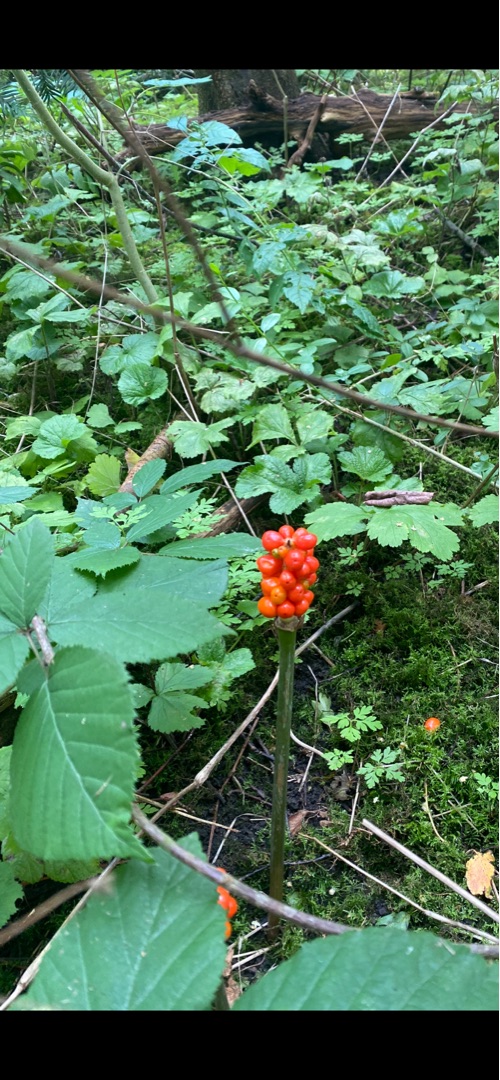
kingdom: Plantae
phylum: Tracheophyta
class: Liliopsida
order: Alismatales
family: Araceae
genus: Arum
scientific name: Arum
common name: Arumslægten
